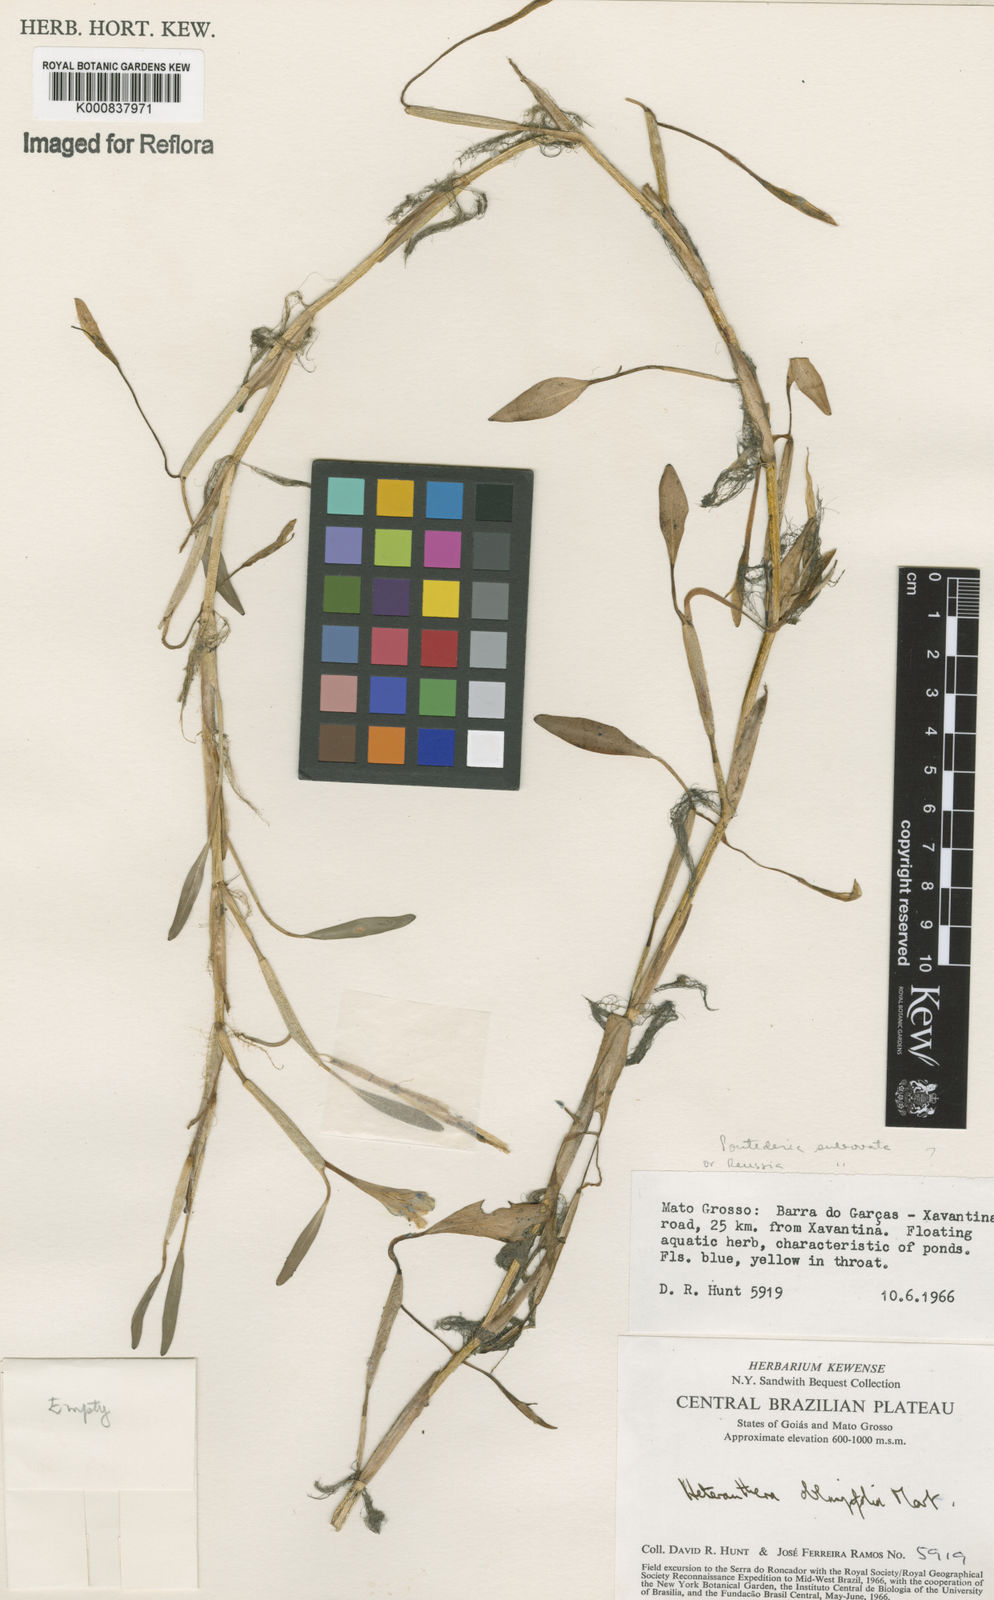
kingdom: Plantae
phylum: Tracheophyta
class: Liliopsida
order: Commelinales
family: Pontederiaceae
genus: Pontederia
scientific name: Pontederia subovata
